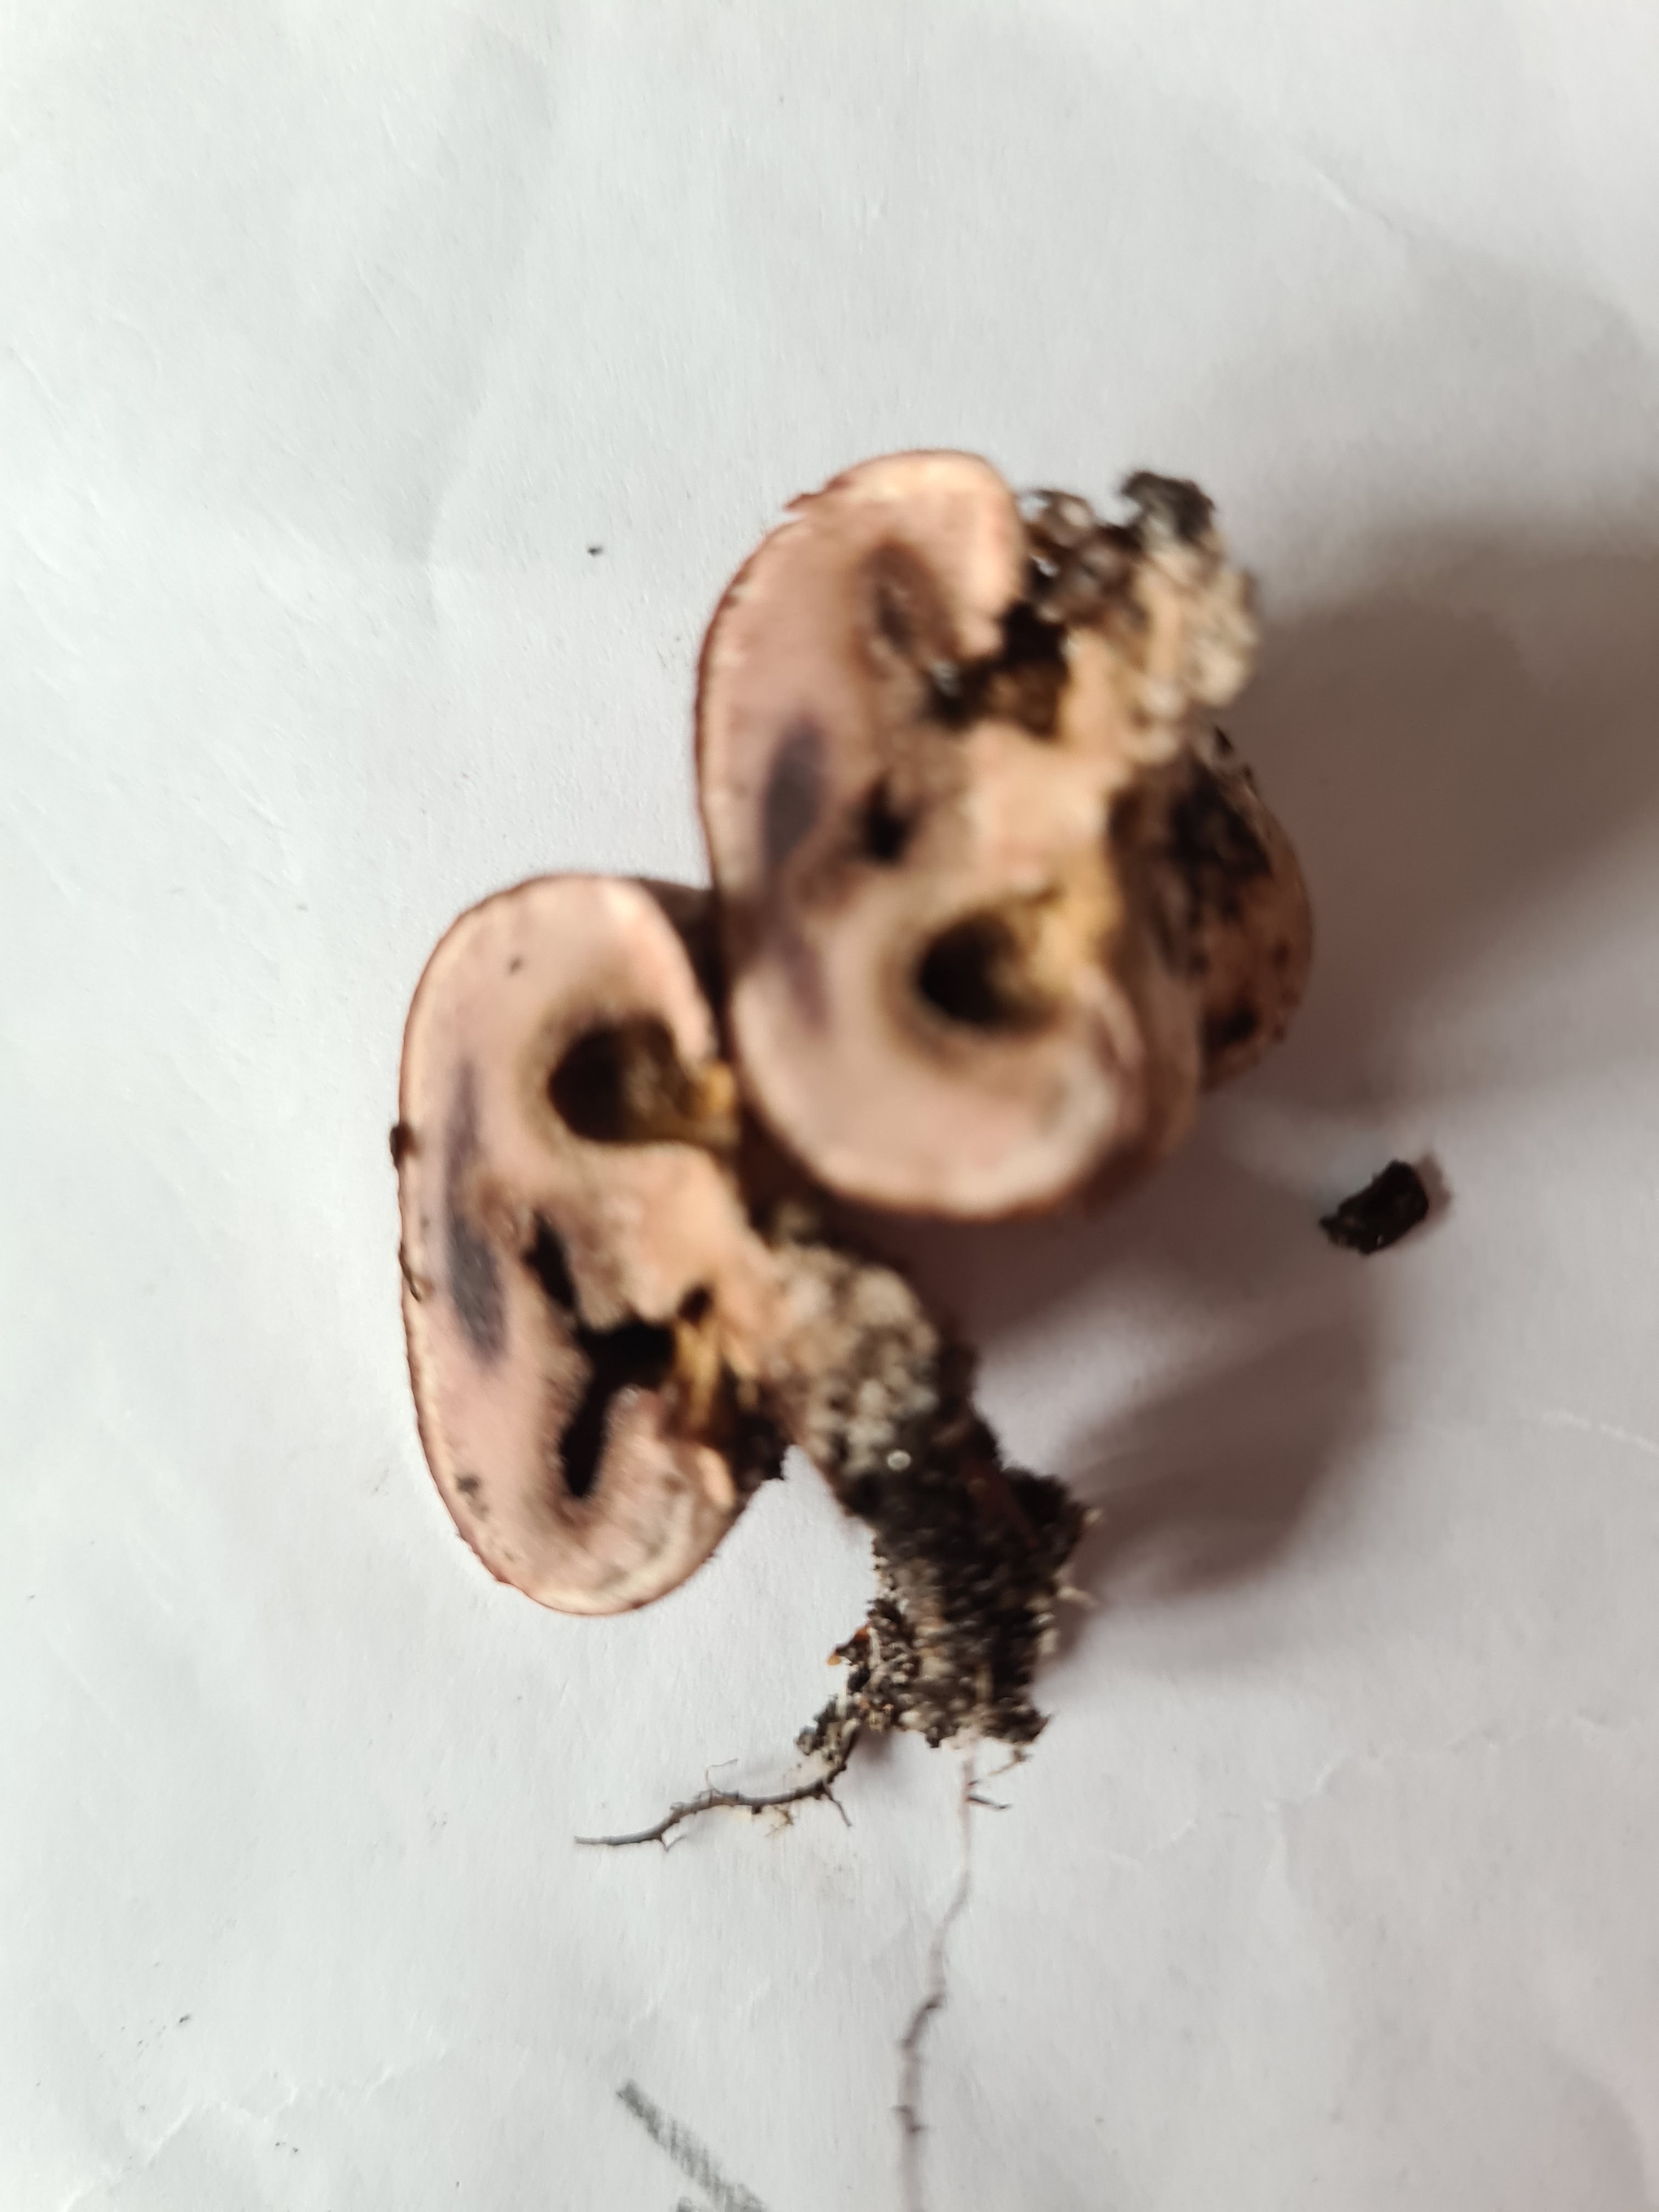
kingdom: Fungi
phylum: Basidiomycota
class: Agaricomycetes
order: Boletales
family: Sclerodermataceae
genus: Scleroderma
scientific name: Scleroderma
